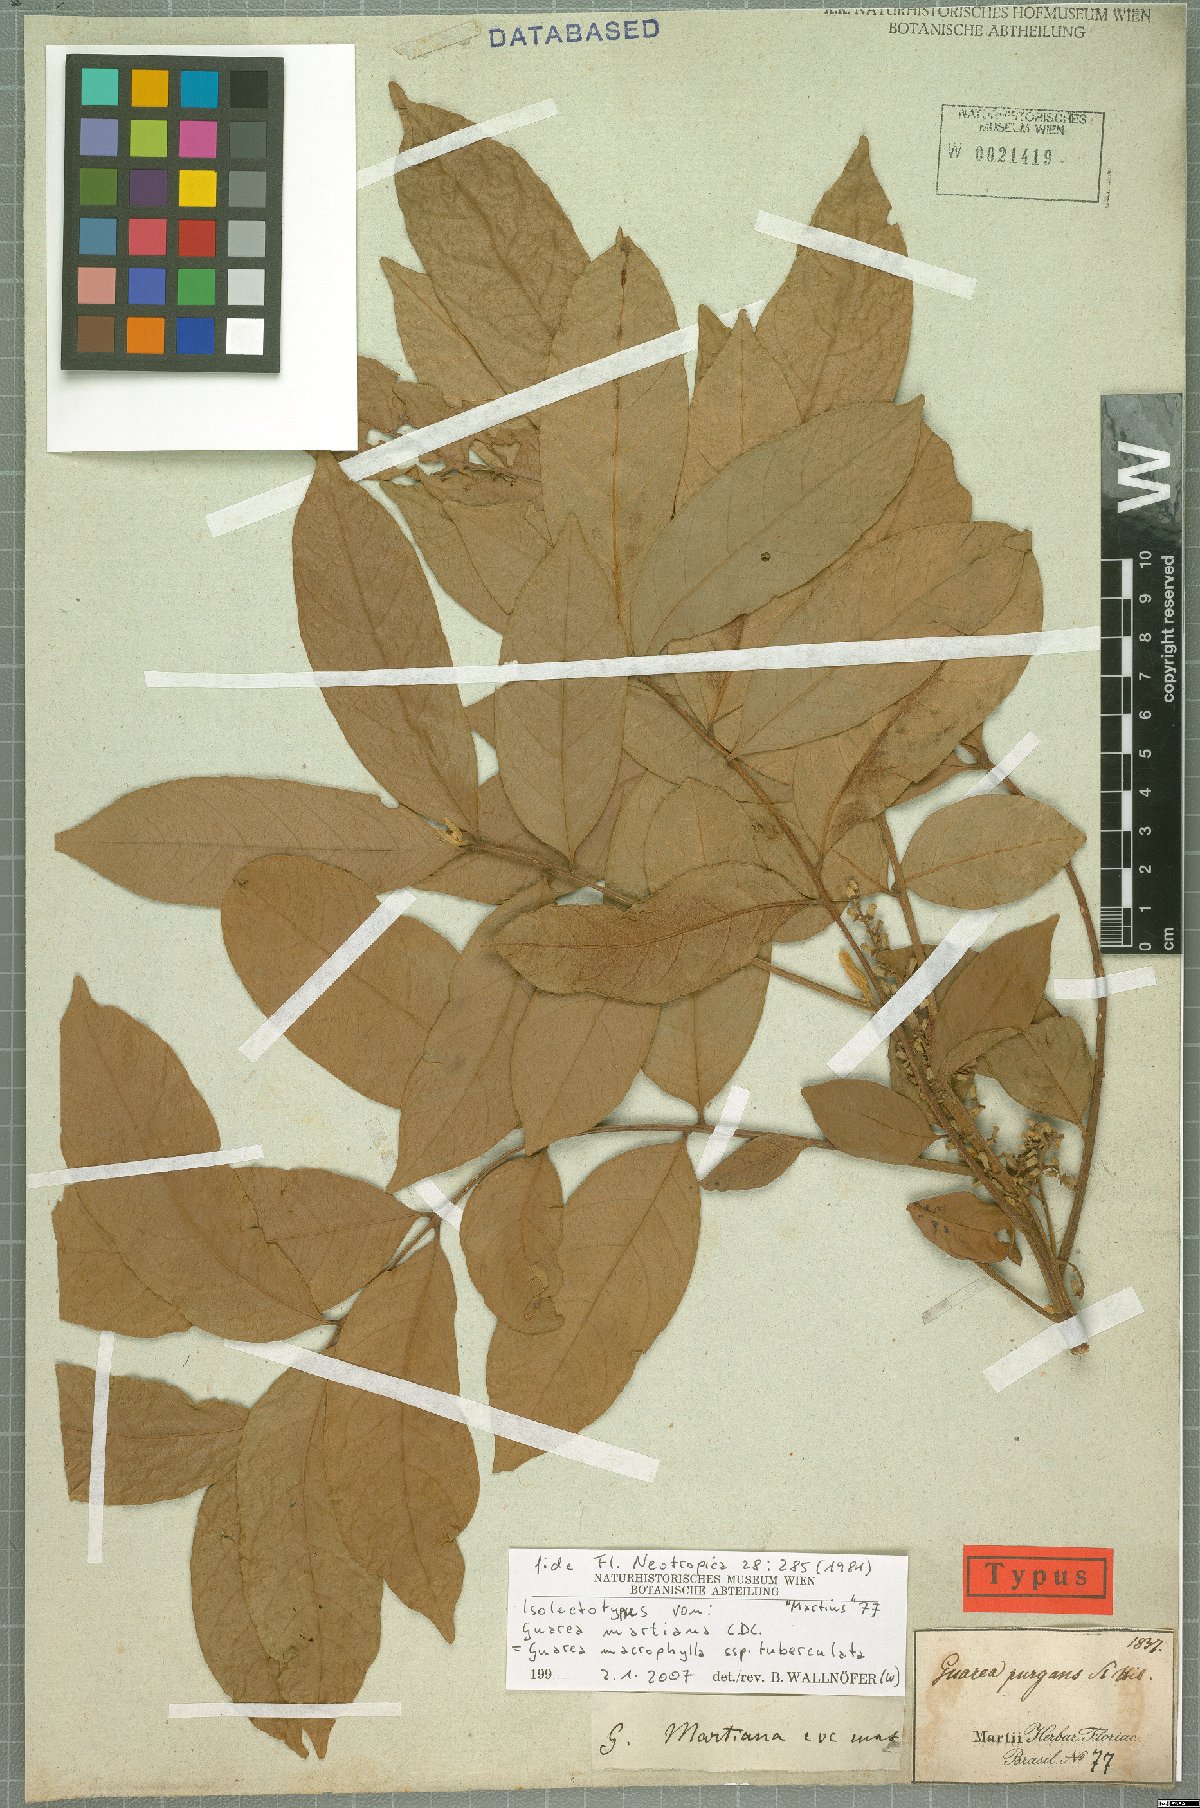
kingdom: Plantae
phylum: Tracheophyta
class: Magnoliopsida
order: Sapindales
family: Meliaceae
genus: Guarea
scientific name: Guarea macrophylla
